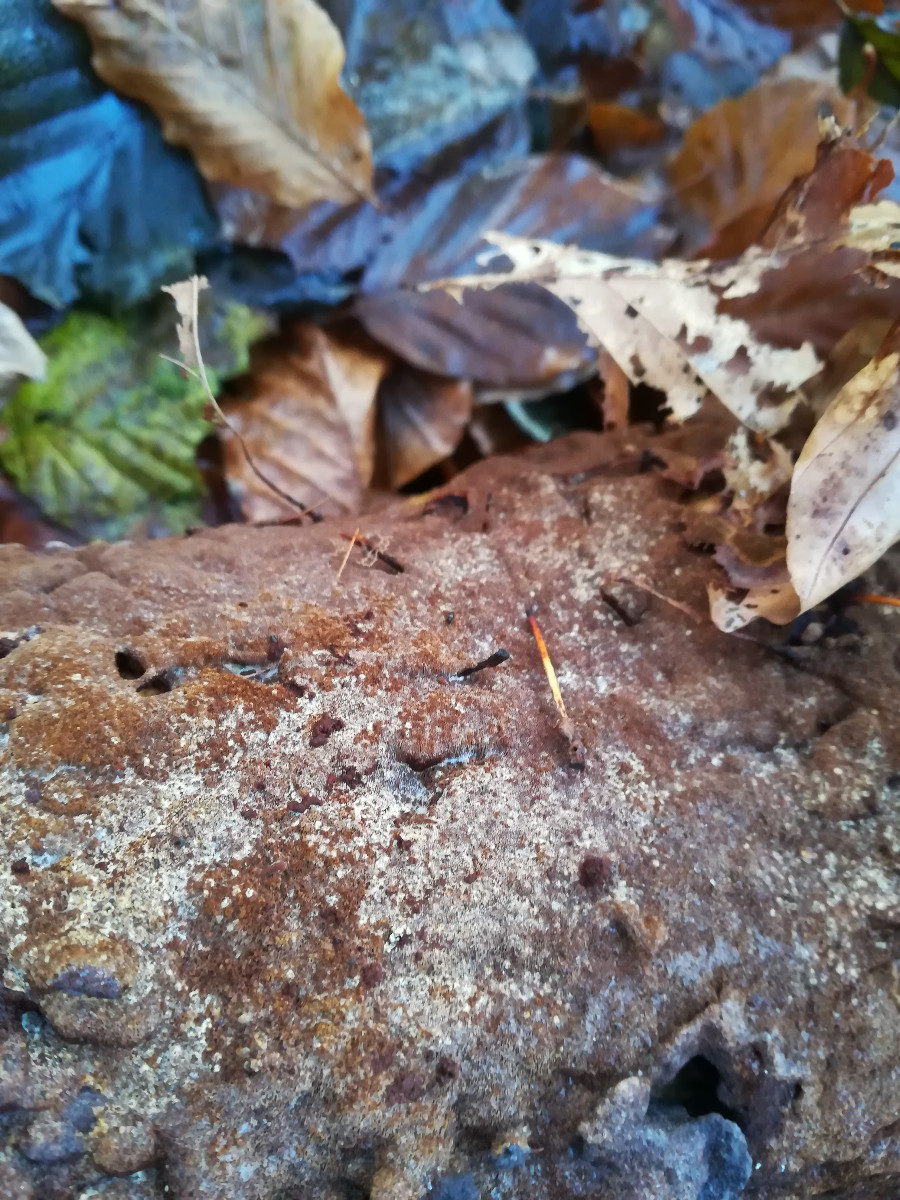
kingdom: Fungi
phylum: Basidiomycota
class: Agaricomycetes
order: Hymenochaetales
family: Hymenochaetaceae
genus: Xanthoporia
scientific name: Xanthoporia radiata
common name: elle-spejlporesvamp
